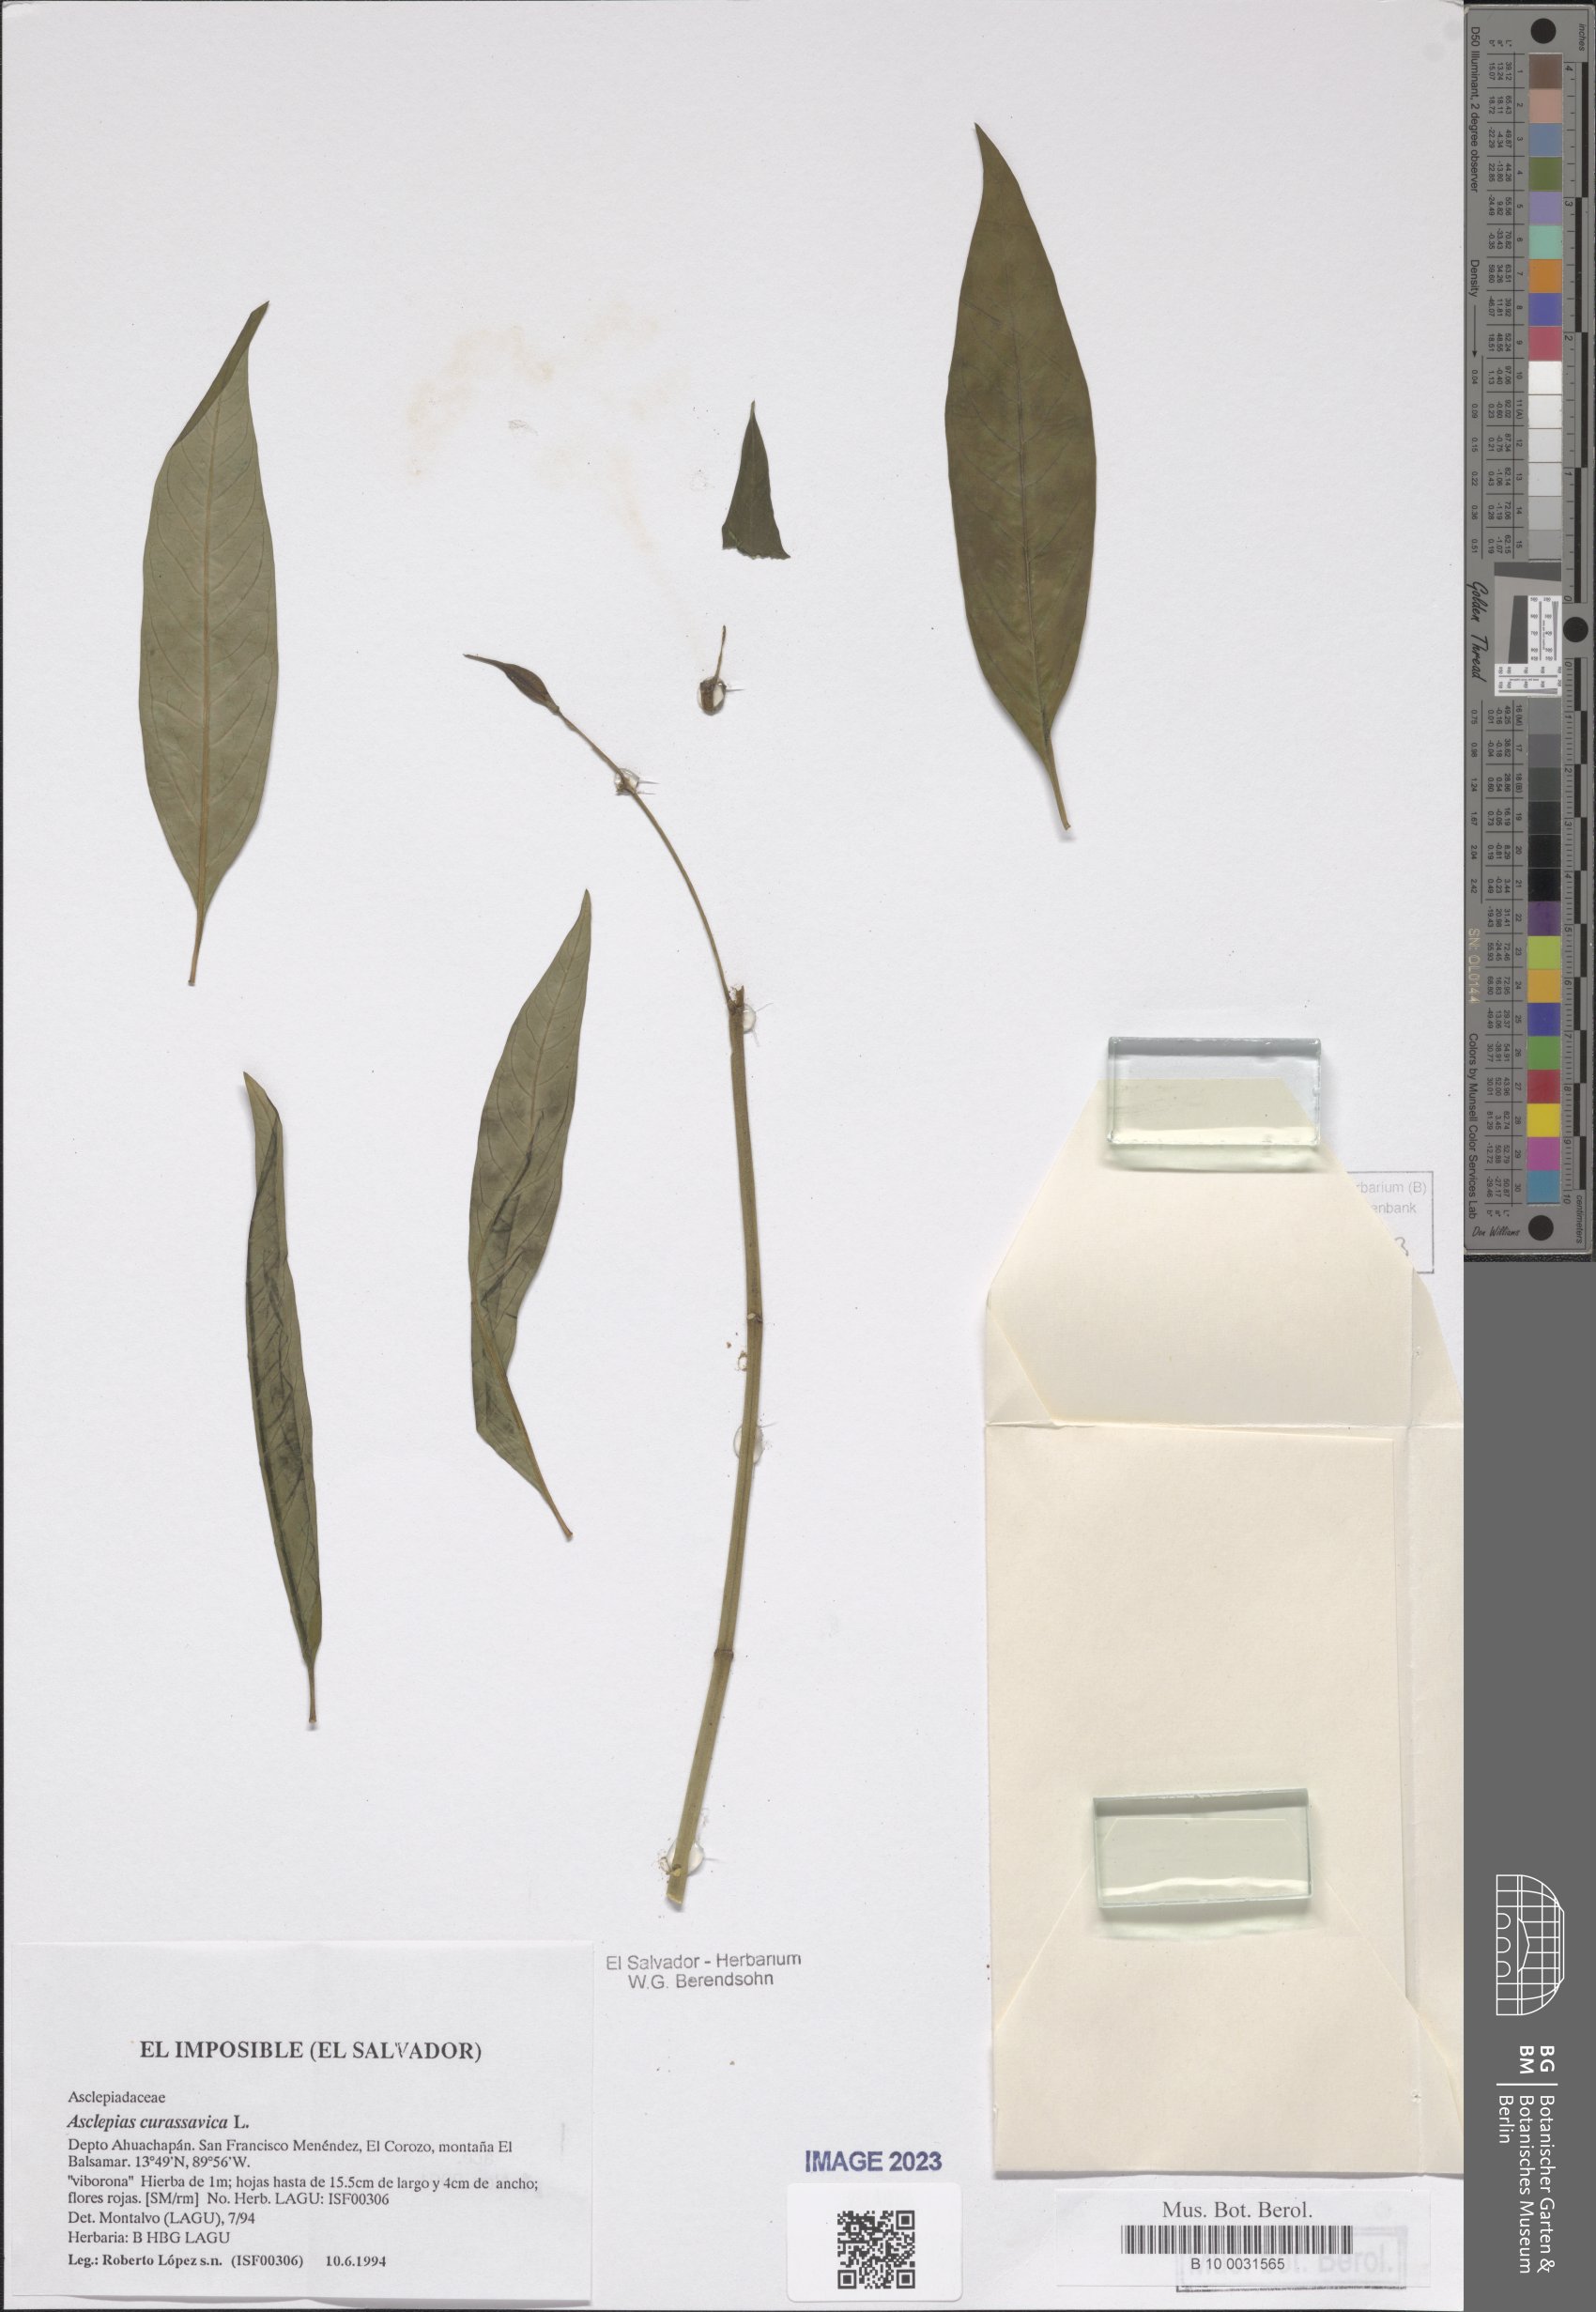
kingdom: Plantae
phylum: Tracheophyta
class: Magnoliopsida
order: Gentianales
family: Apocynaceae
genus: Asclepias
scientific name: Asclepias curassavica
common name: Bloodflower
